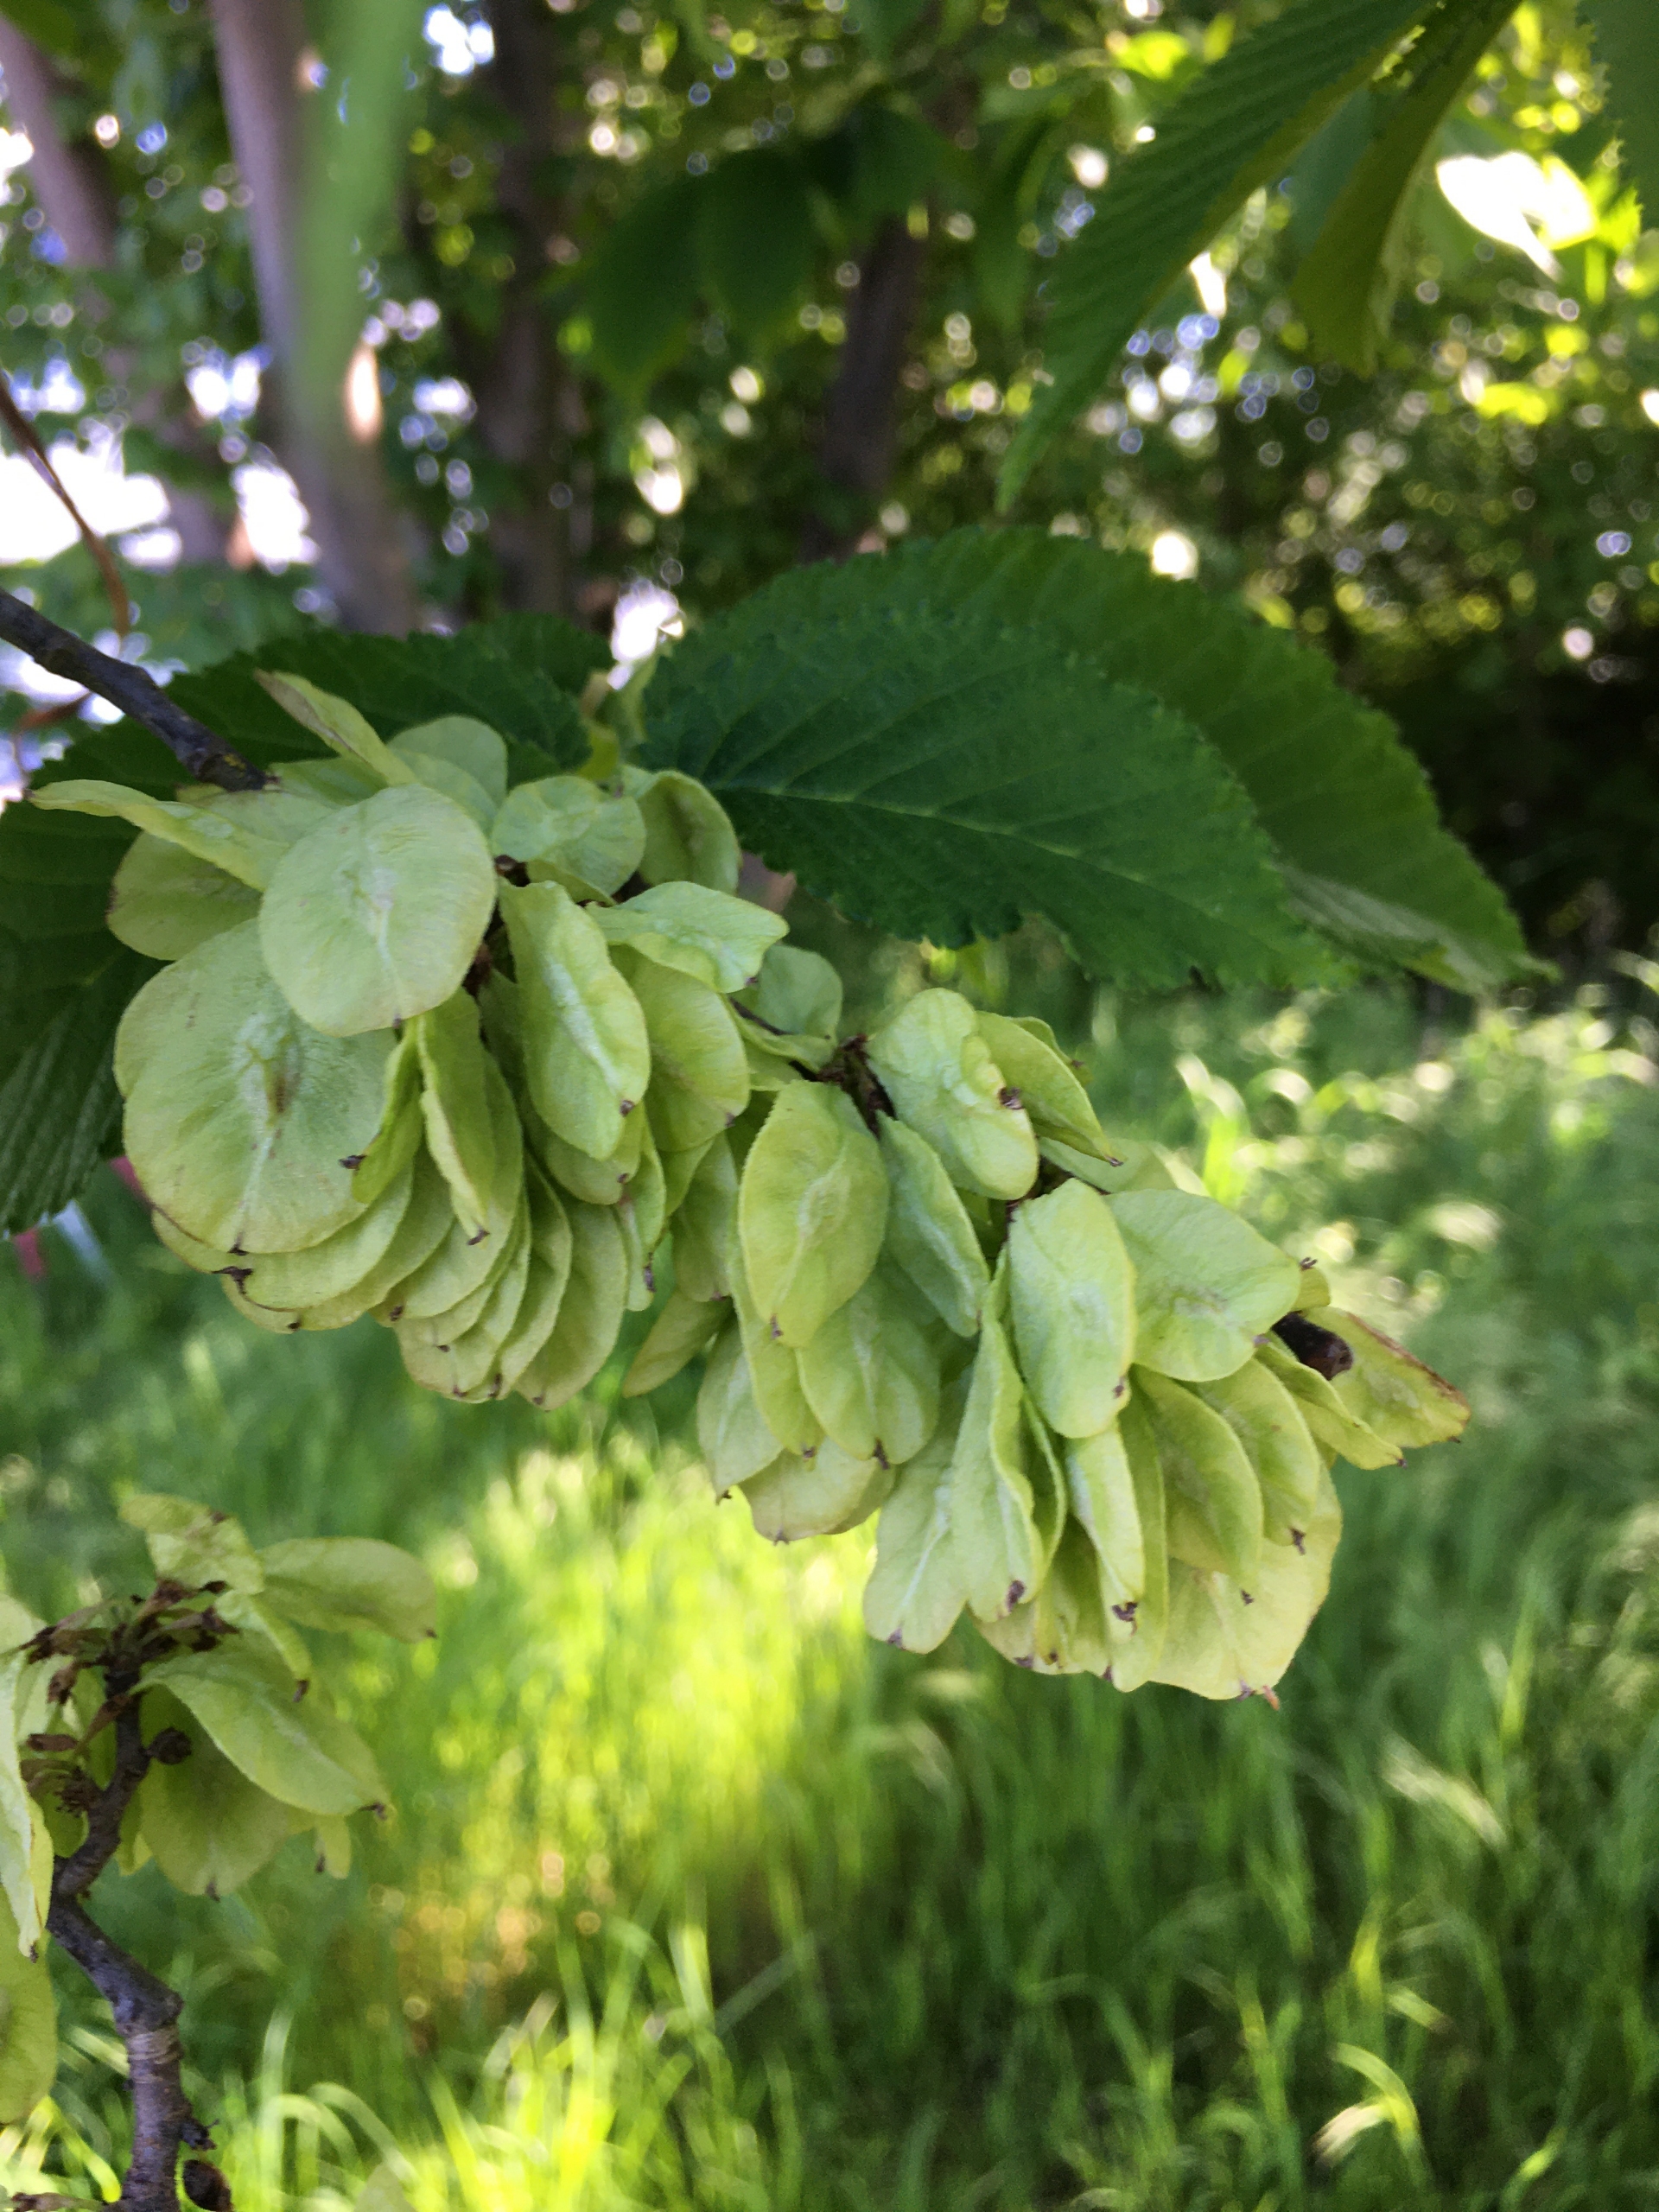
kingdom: Plantae
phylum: Tracheophyta
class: Magnoliopsida
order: Rosales
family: Ulmaceae
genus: Ulmus
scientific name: Ulmus glabra
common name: Skov-elm/storbladet elm
